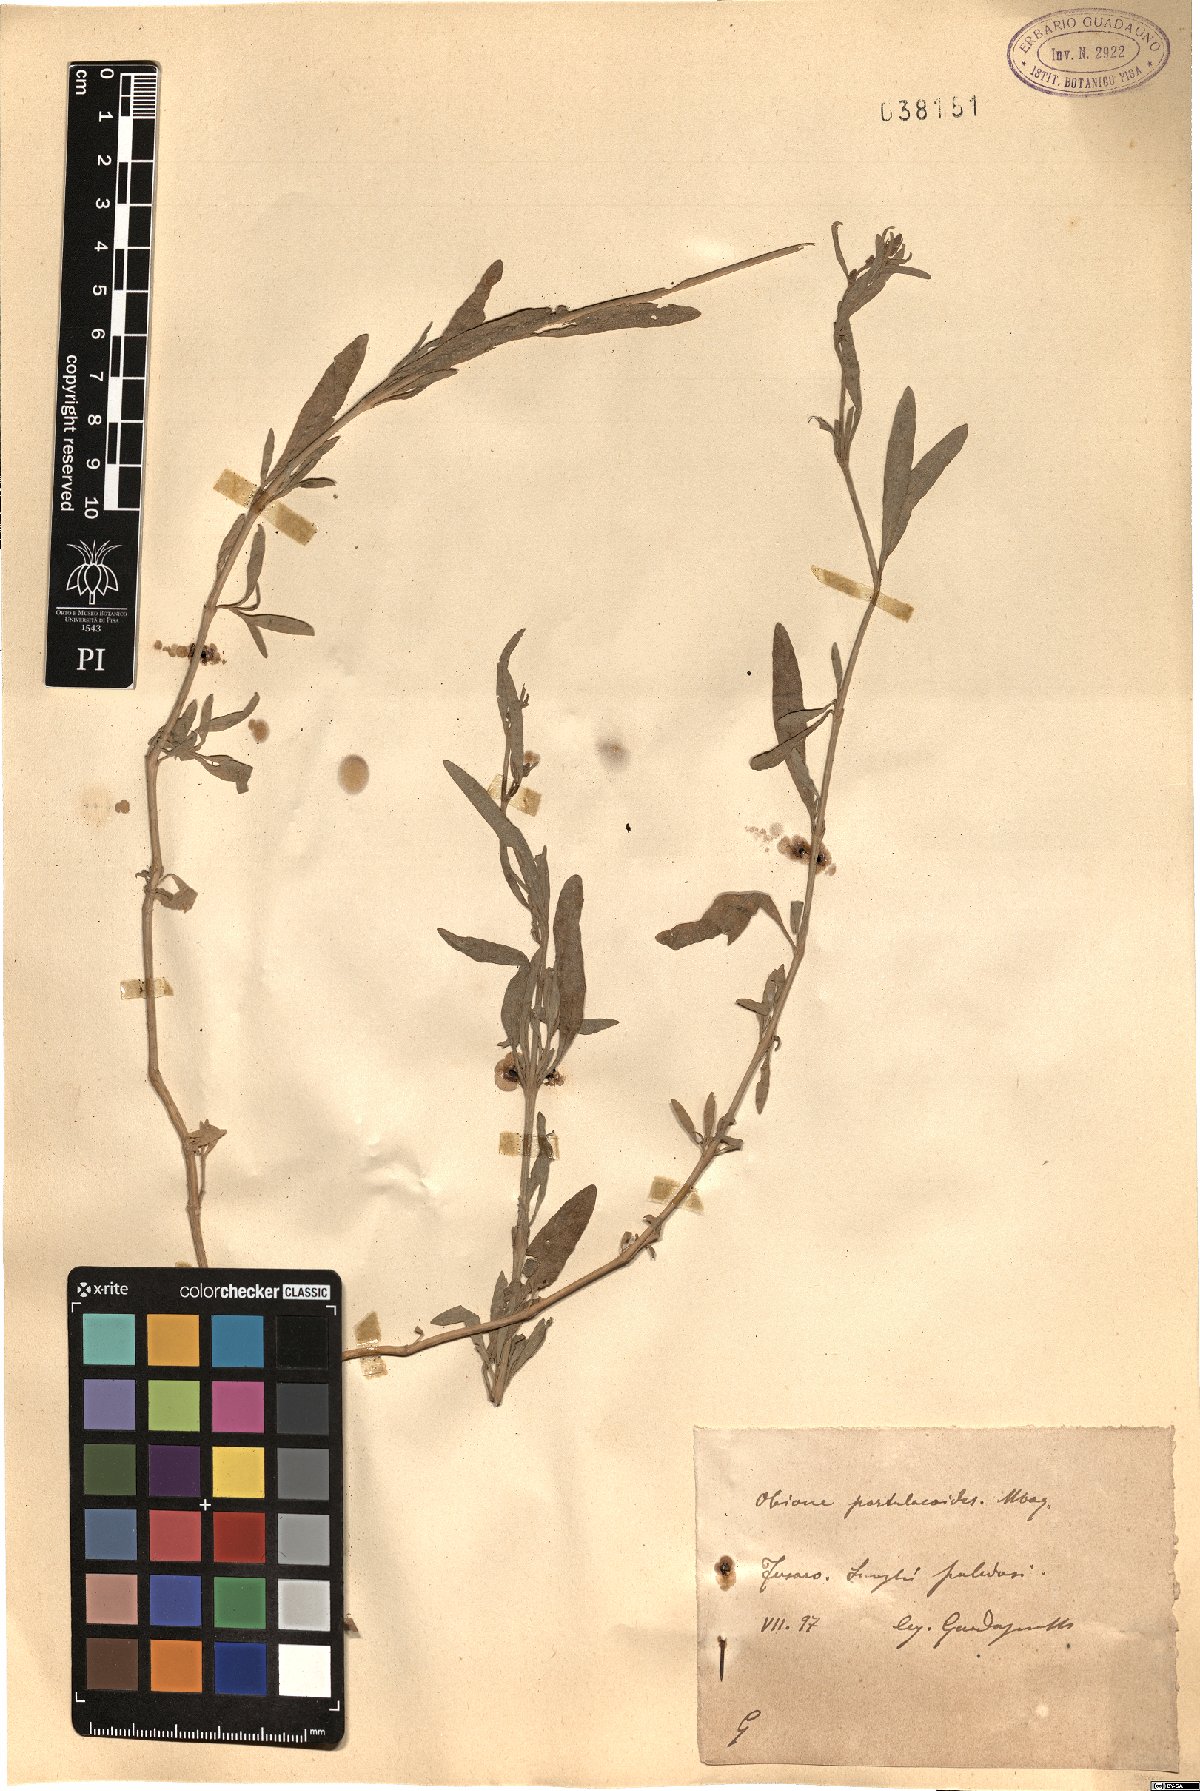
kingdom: Plantae
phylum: Tracheophyta
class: Magnoliopsida
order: Caryophyllales
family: Amaranthaceae
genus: Halimione
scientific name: Halimione portulacoides
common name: Sea-purslane
